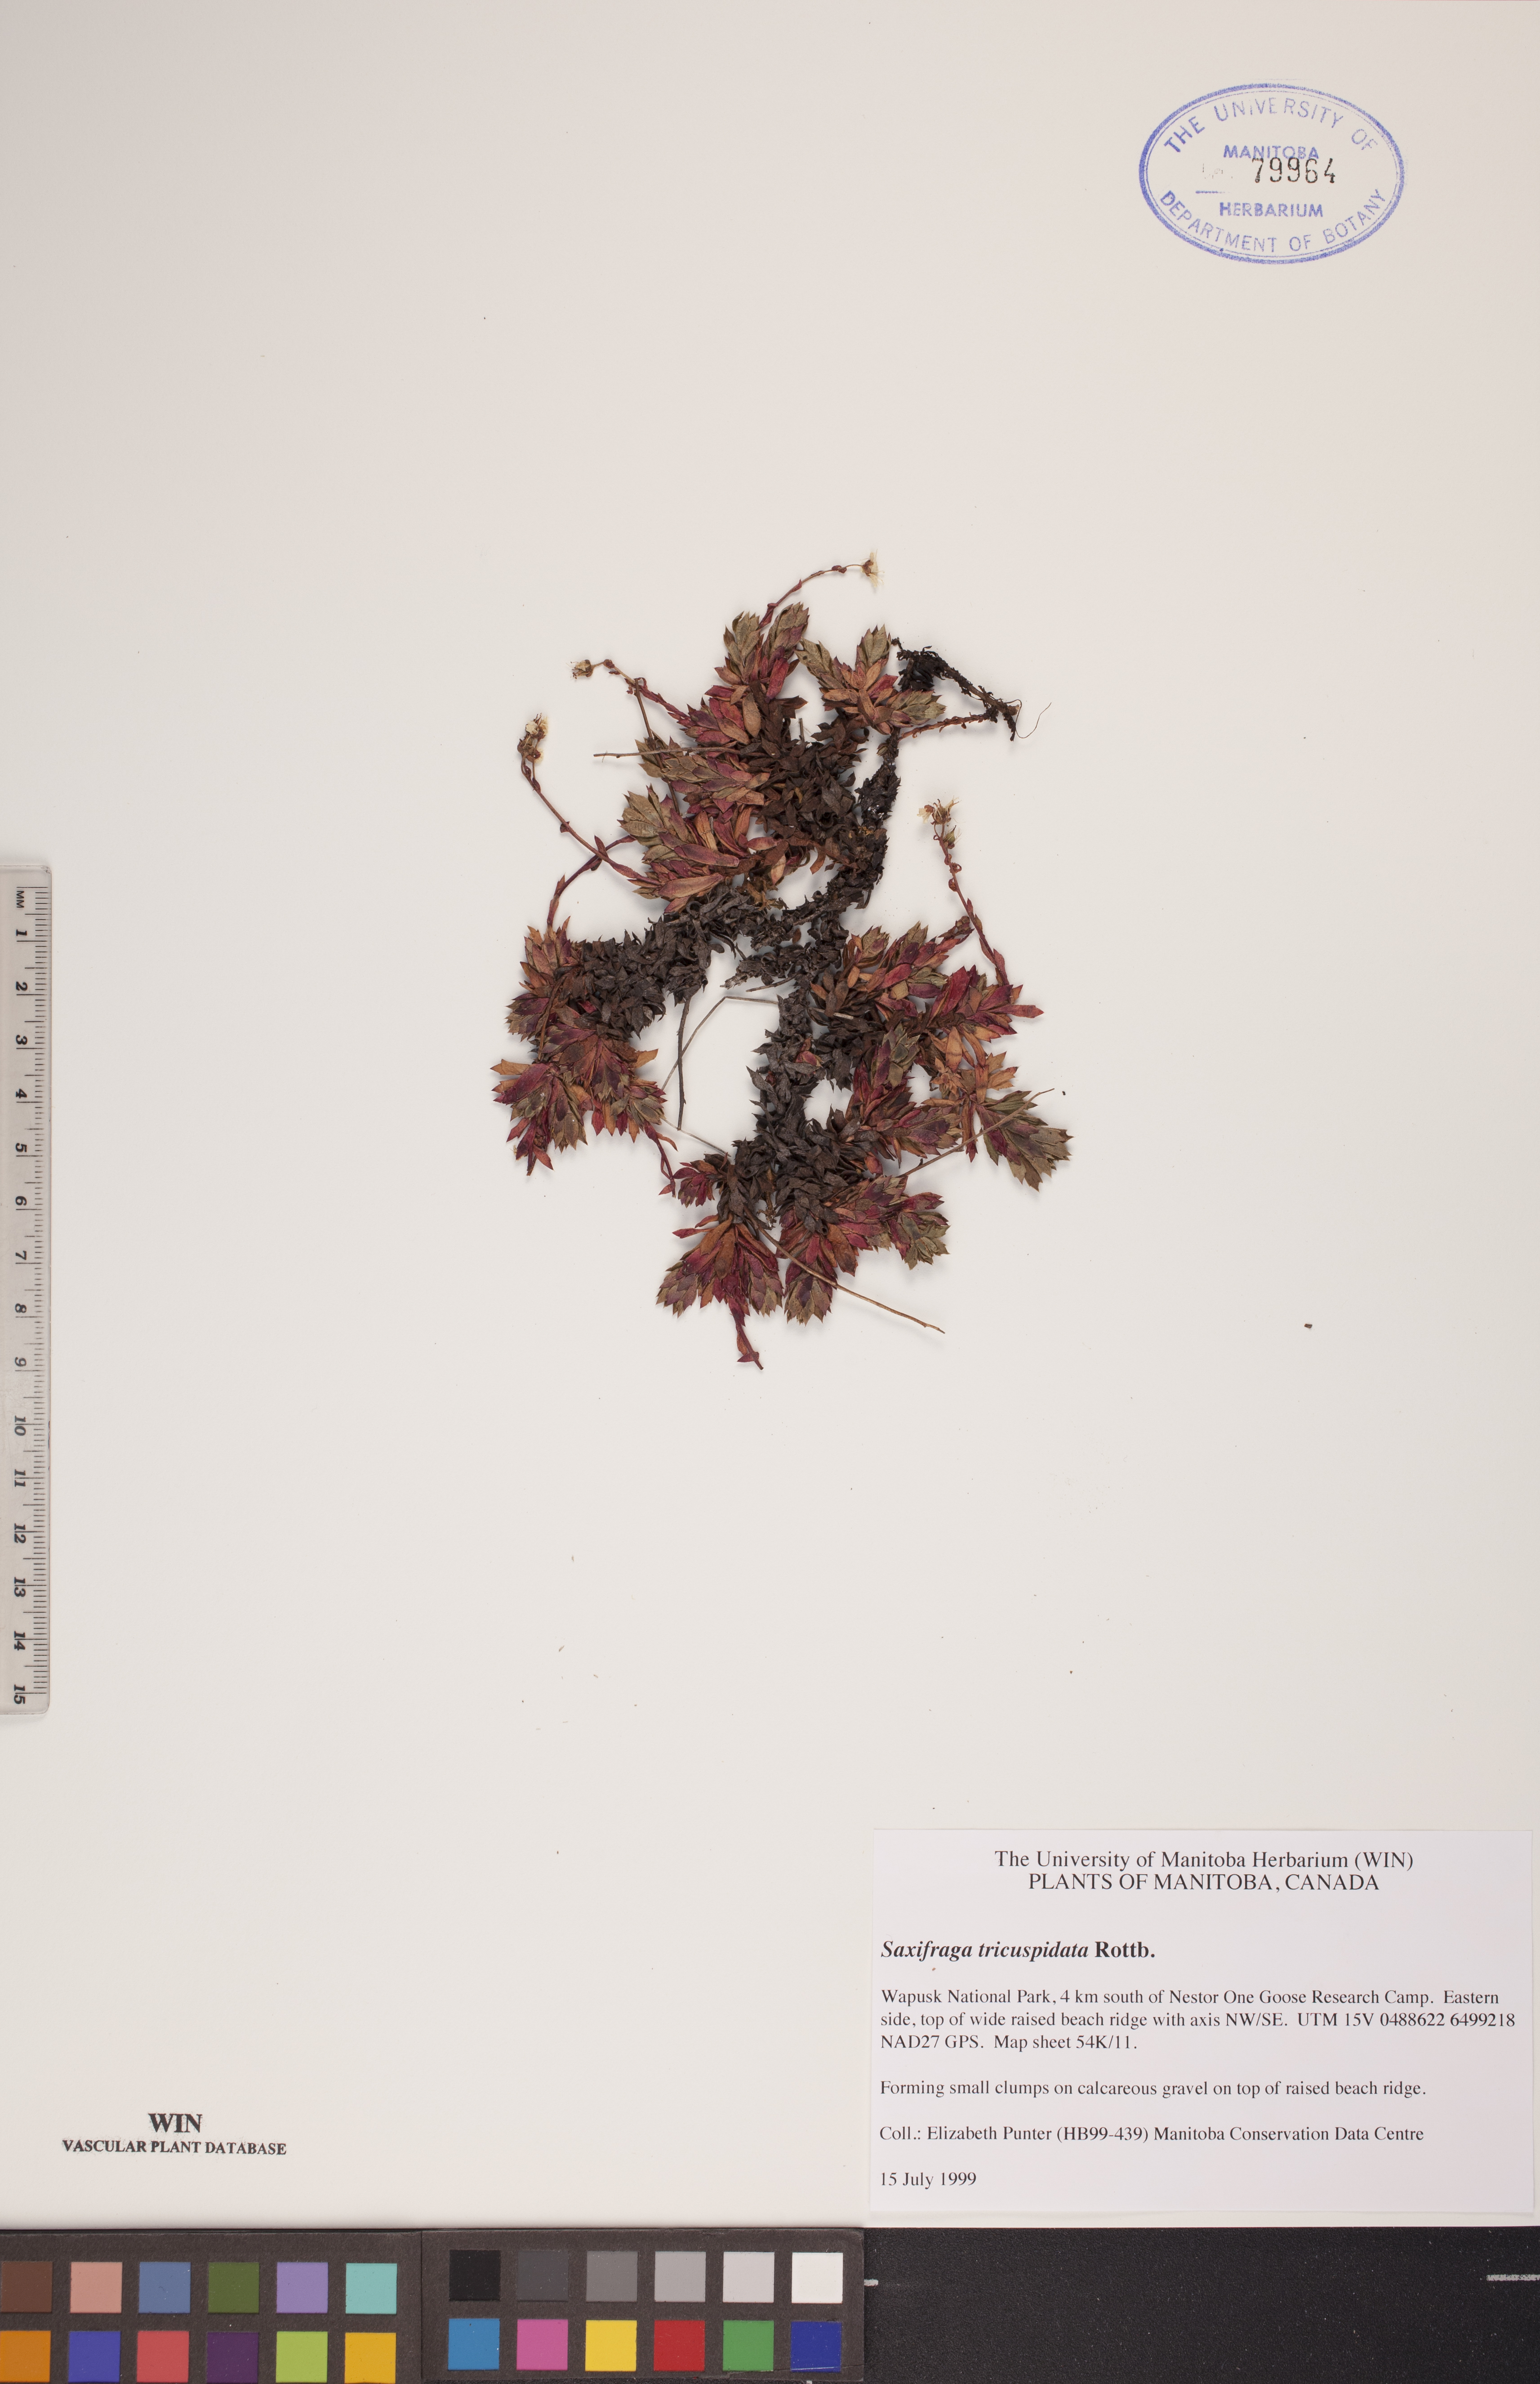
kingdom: Plantae
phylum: Tracheophyta
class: Magnoliopsida
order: Saxifragales
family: Saxifragaceae
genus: Saxifraga
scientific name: Saxifraga tricuspidata
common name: Prickly saxifrage
